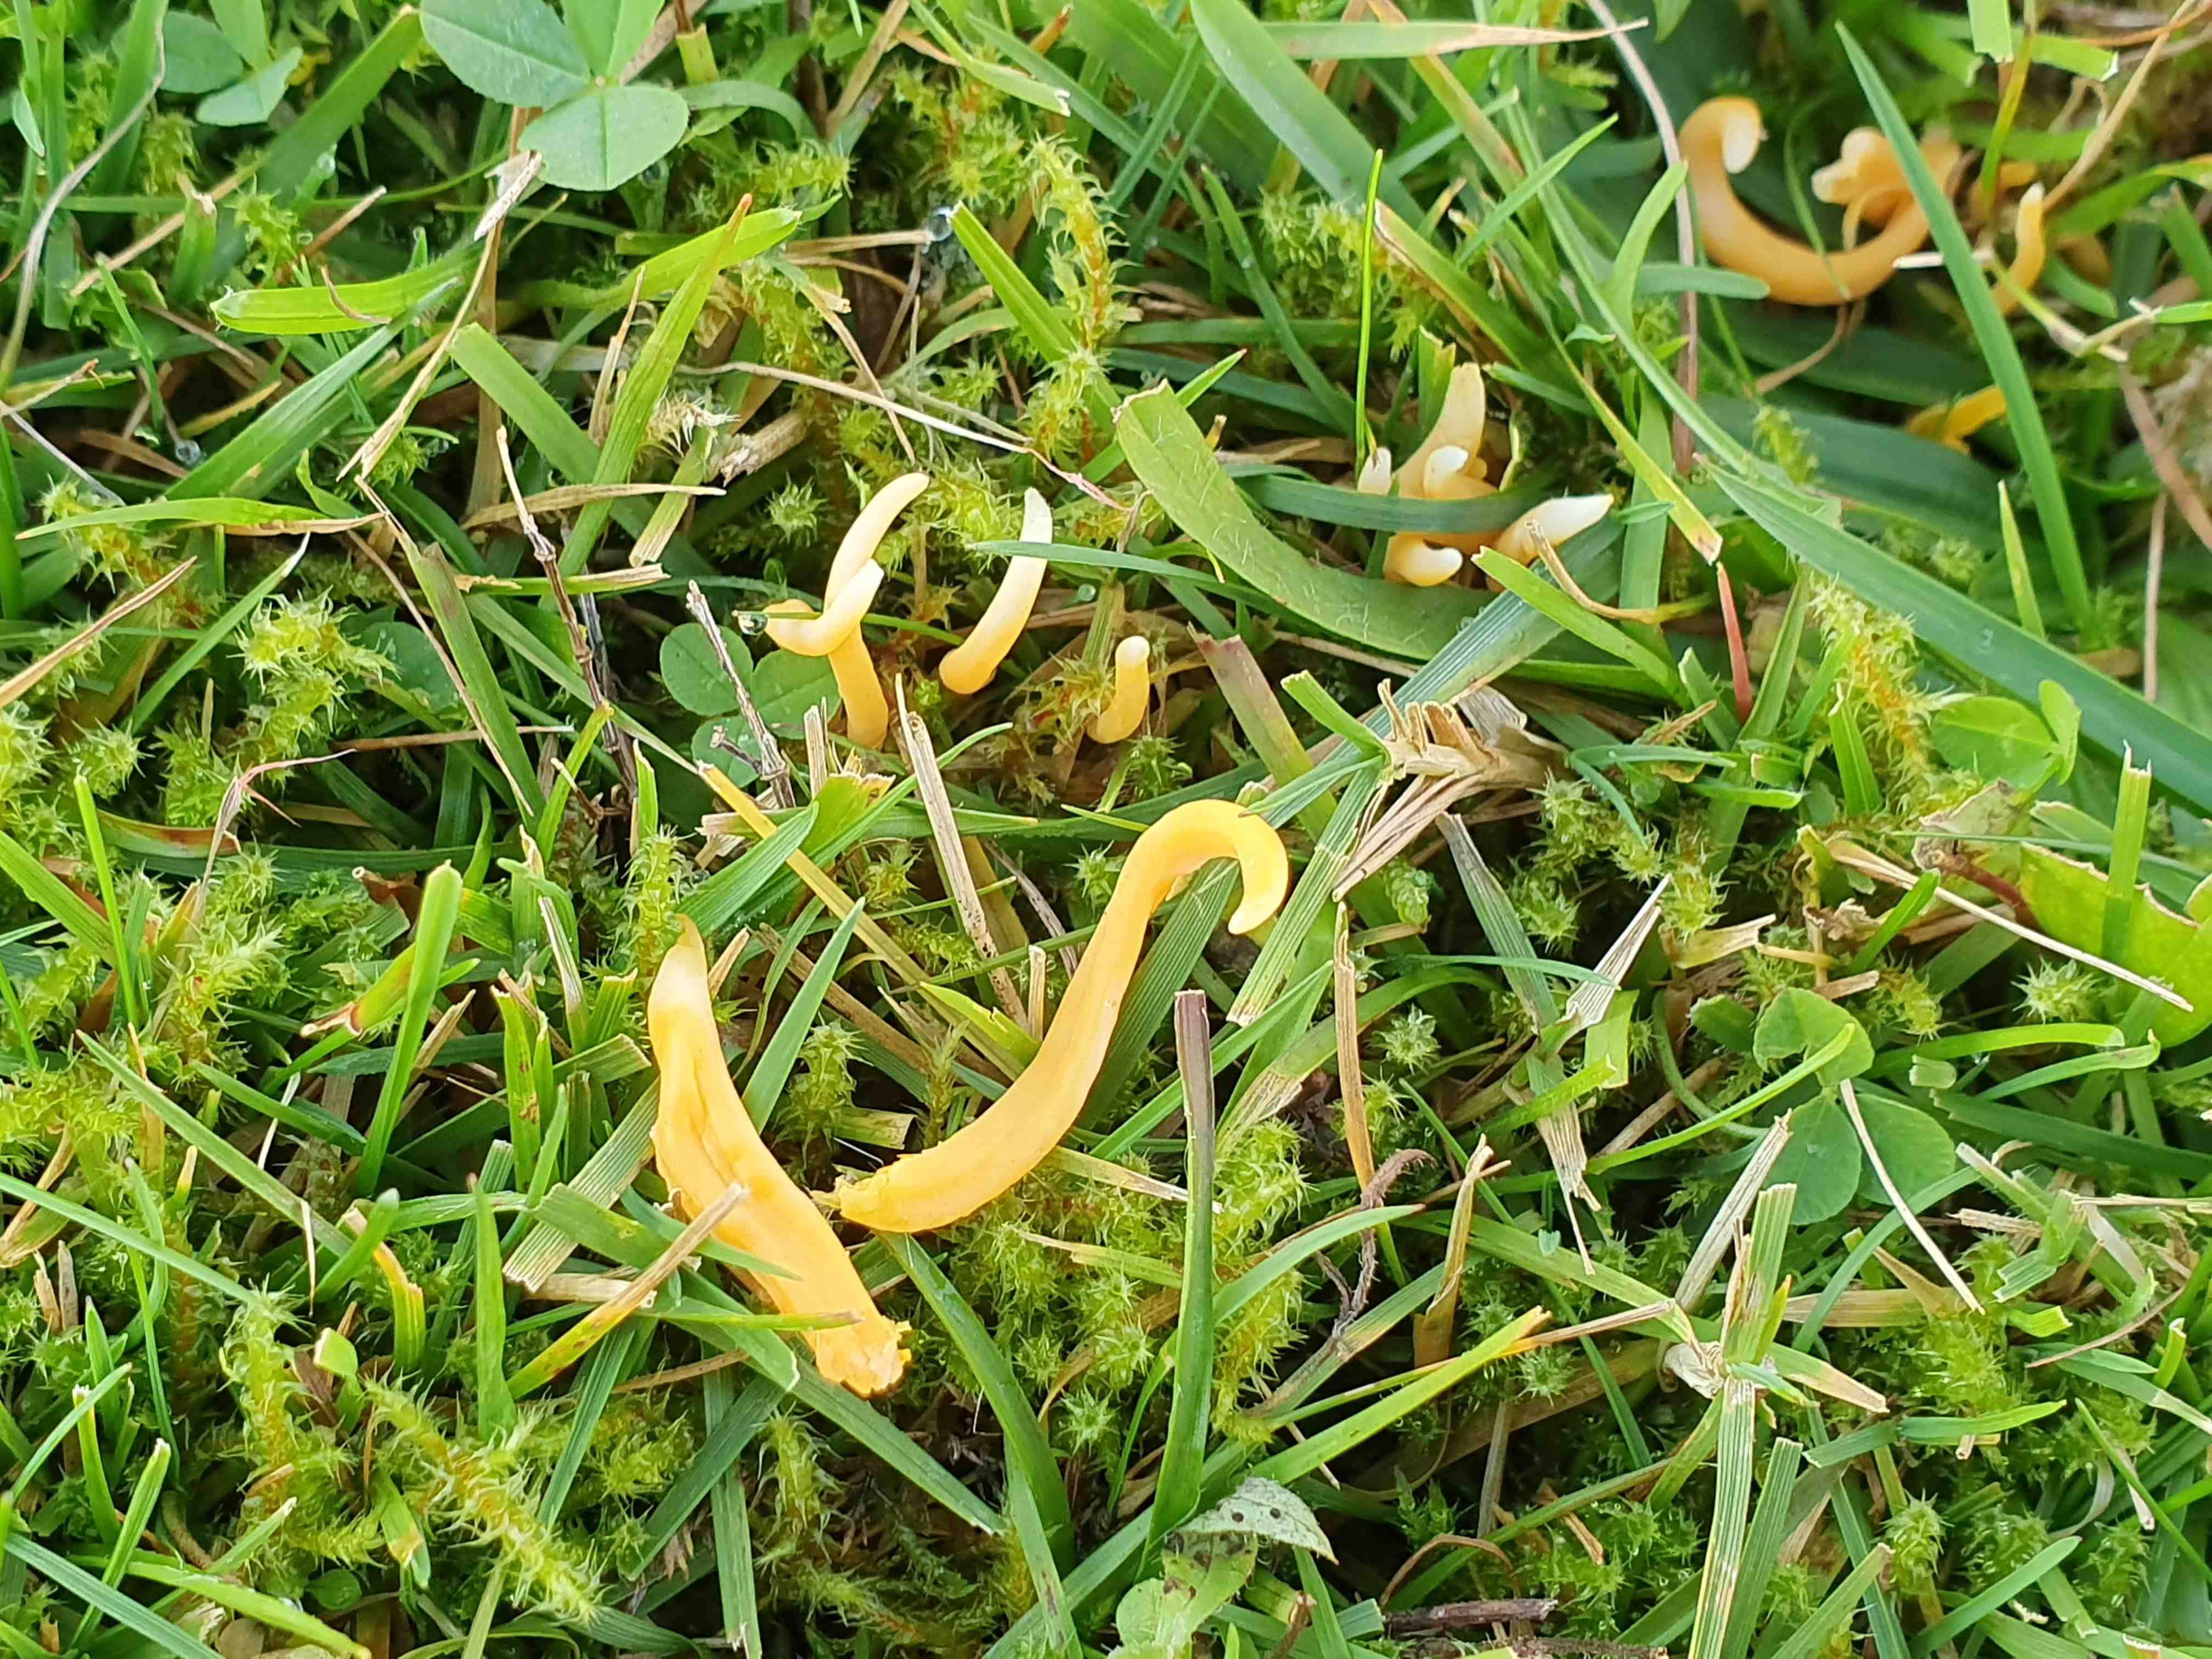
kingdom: Fungi
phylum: Basidiomycota
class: Agaricomycetes
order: Agaricales
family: Clavariaceae
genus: Clavulinopsis
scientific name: Clavulinopsis
